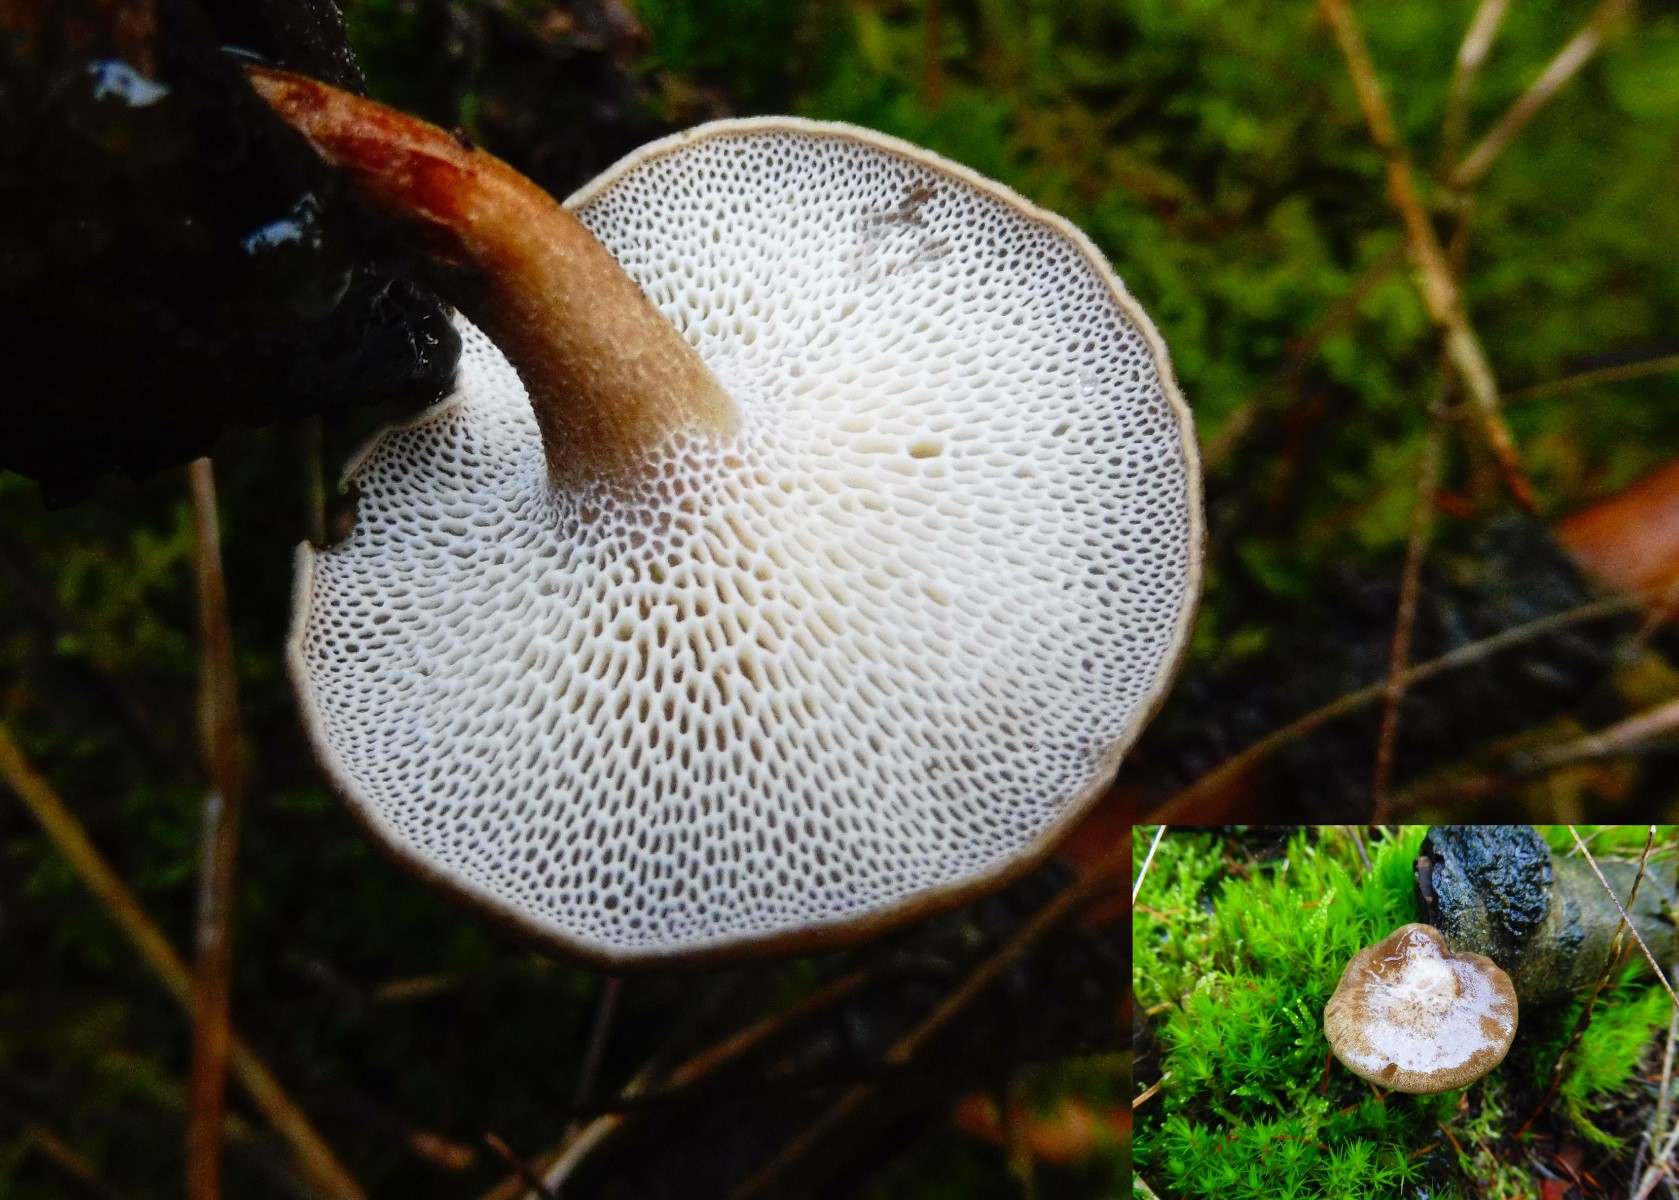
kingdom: Fungi
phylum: Basidiomycota
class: Agaricomycetes
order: Polyporales
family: Polyporaceae
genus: Lentinus
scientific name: Lentinus brumalis
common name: vinter-stilkporesvamp
